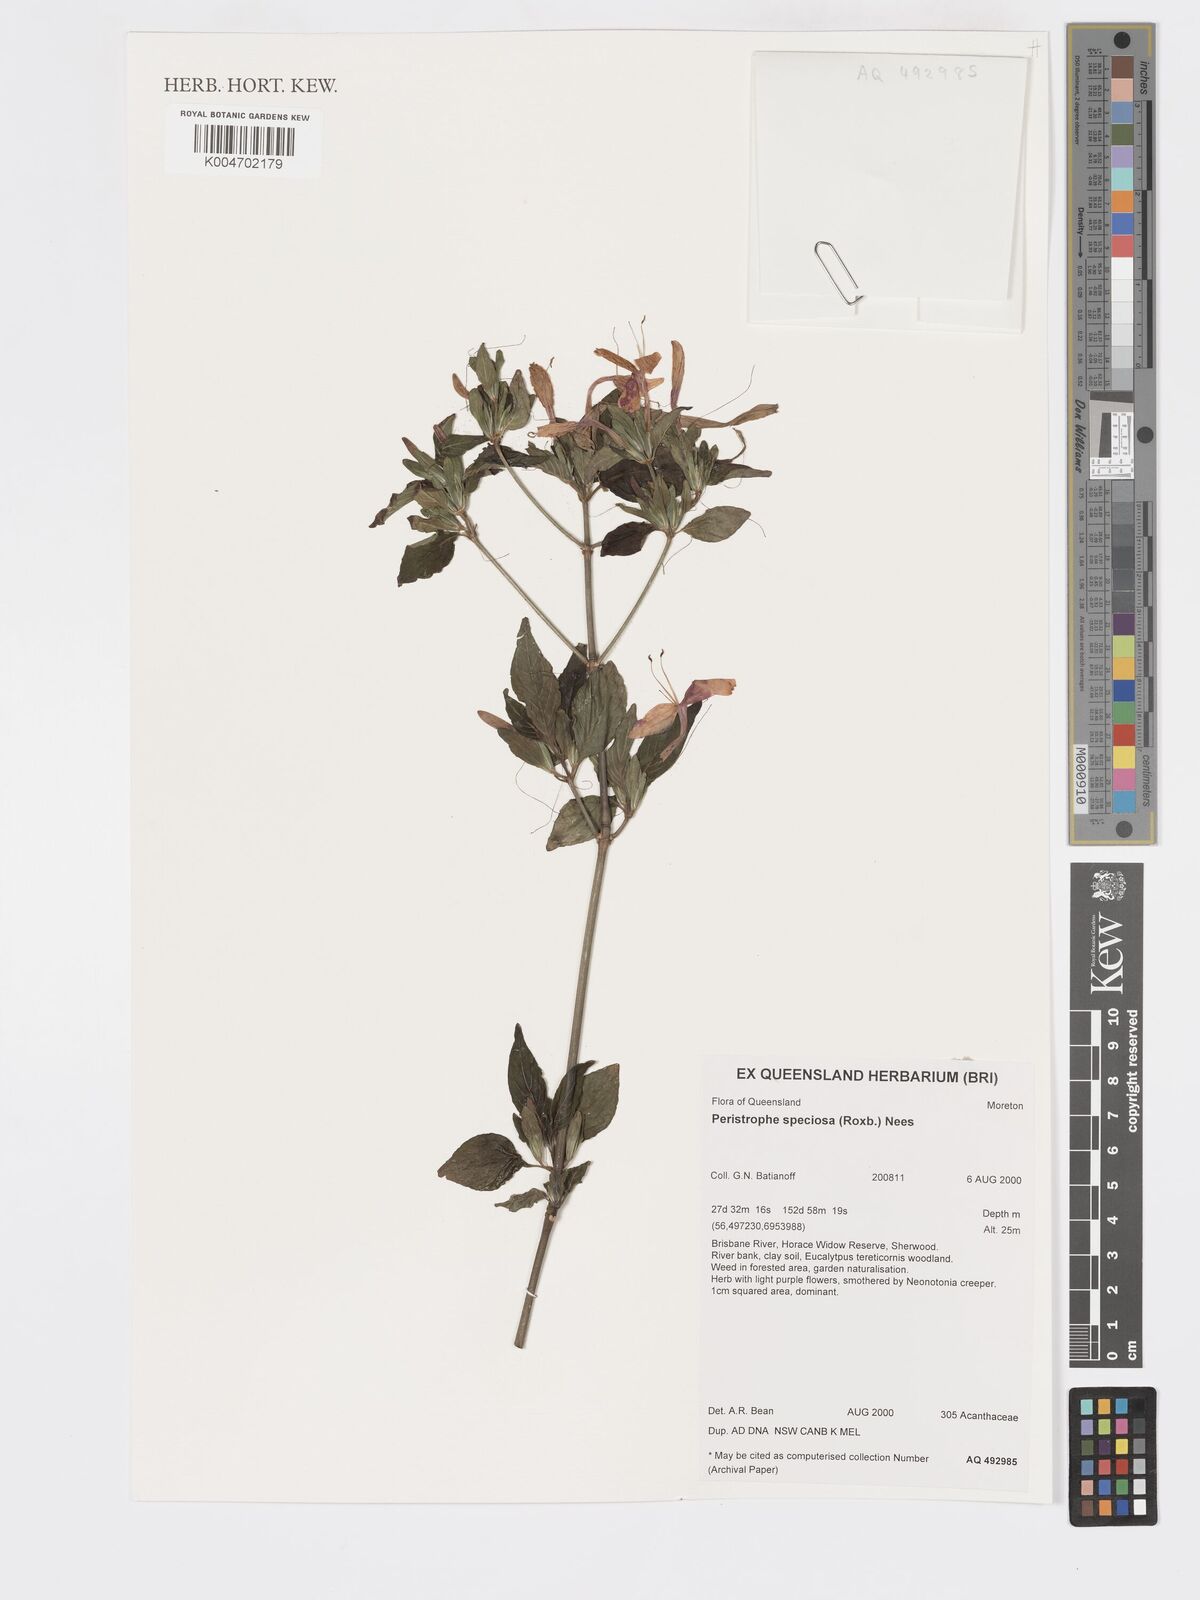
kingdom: Plantae
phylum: Tracheophyta
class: Magnoliopsida
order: Lamiales
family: Acanthaceae
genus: Dicliptera
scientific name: Dicliptera
